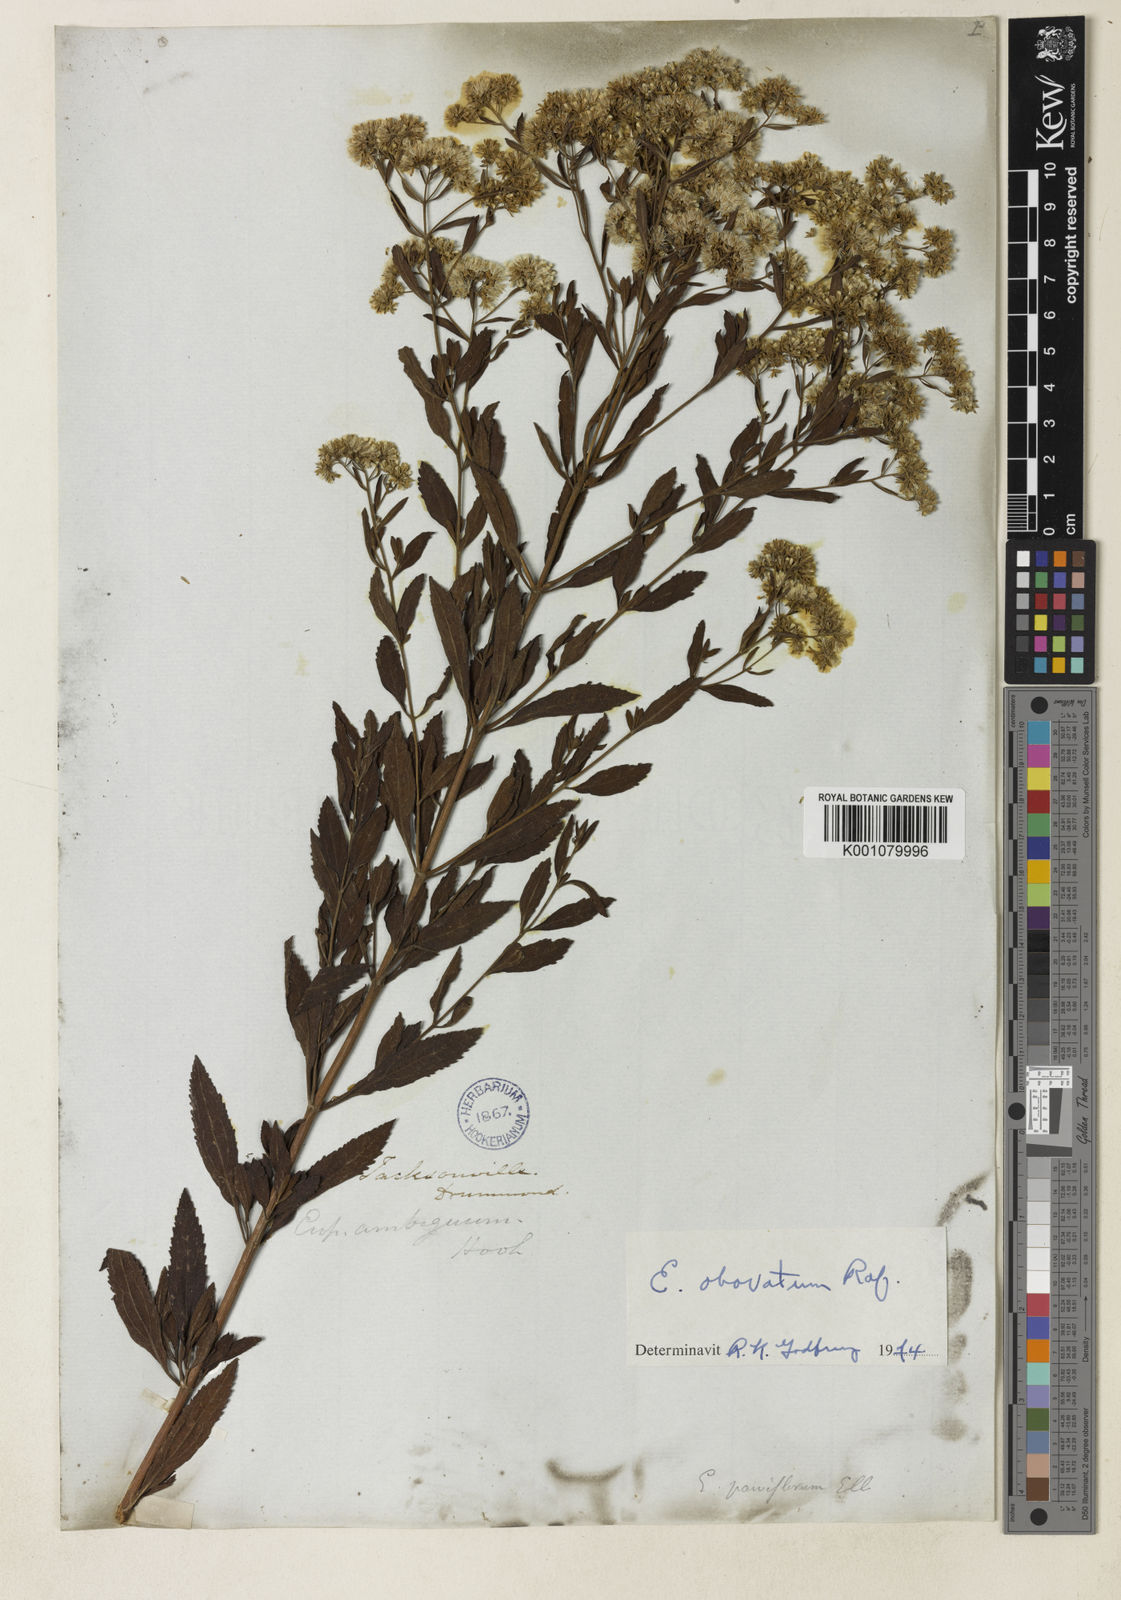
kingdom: Plantae
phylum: Tracheophyta
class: Magnoliopsida
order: Asterales
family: Asteraceae
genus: Eupatorium
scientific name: Eupatorium rotundifolium
